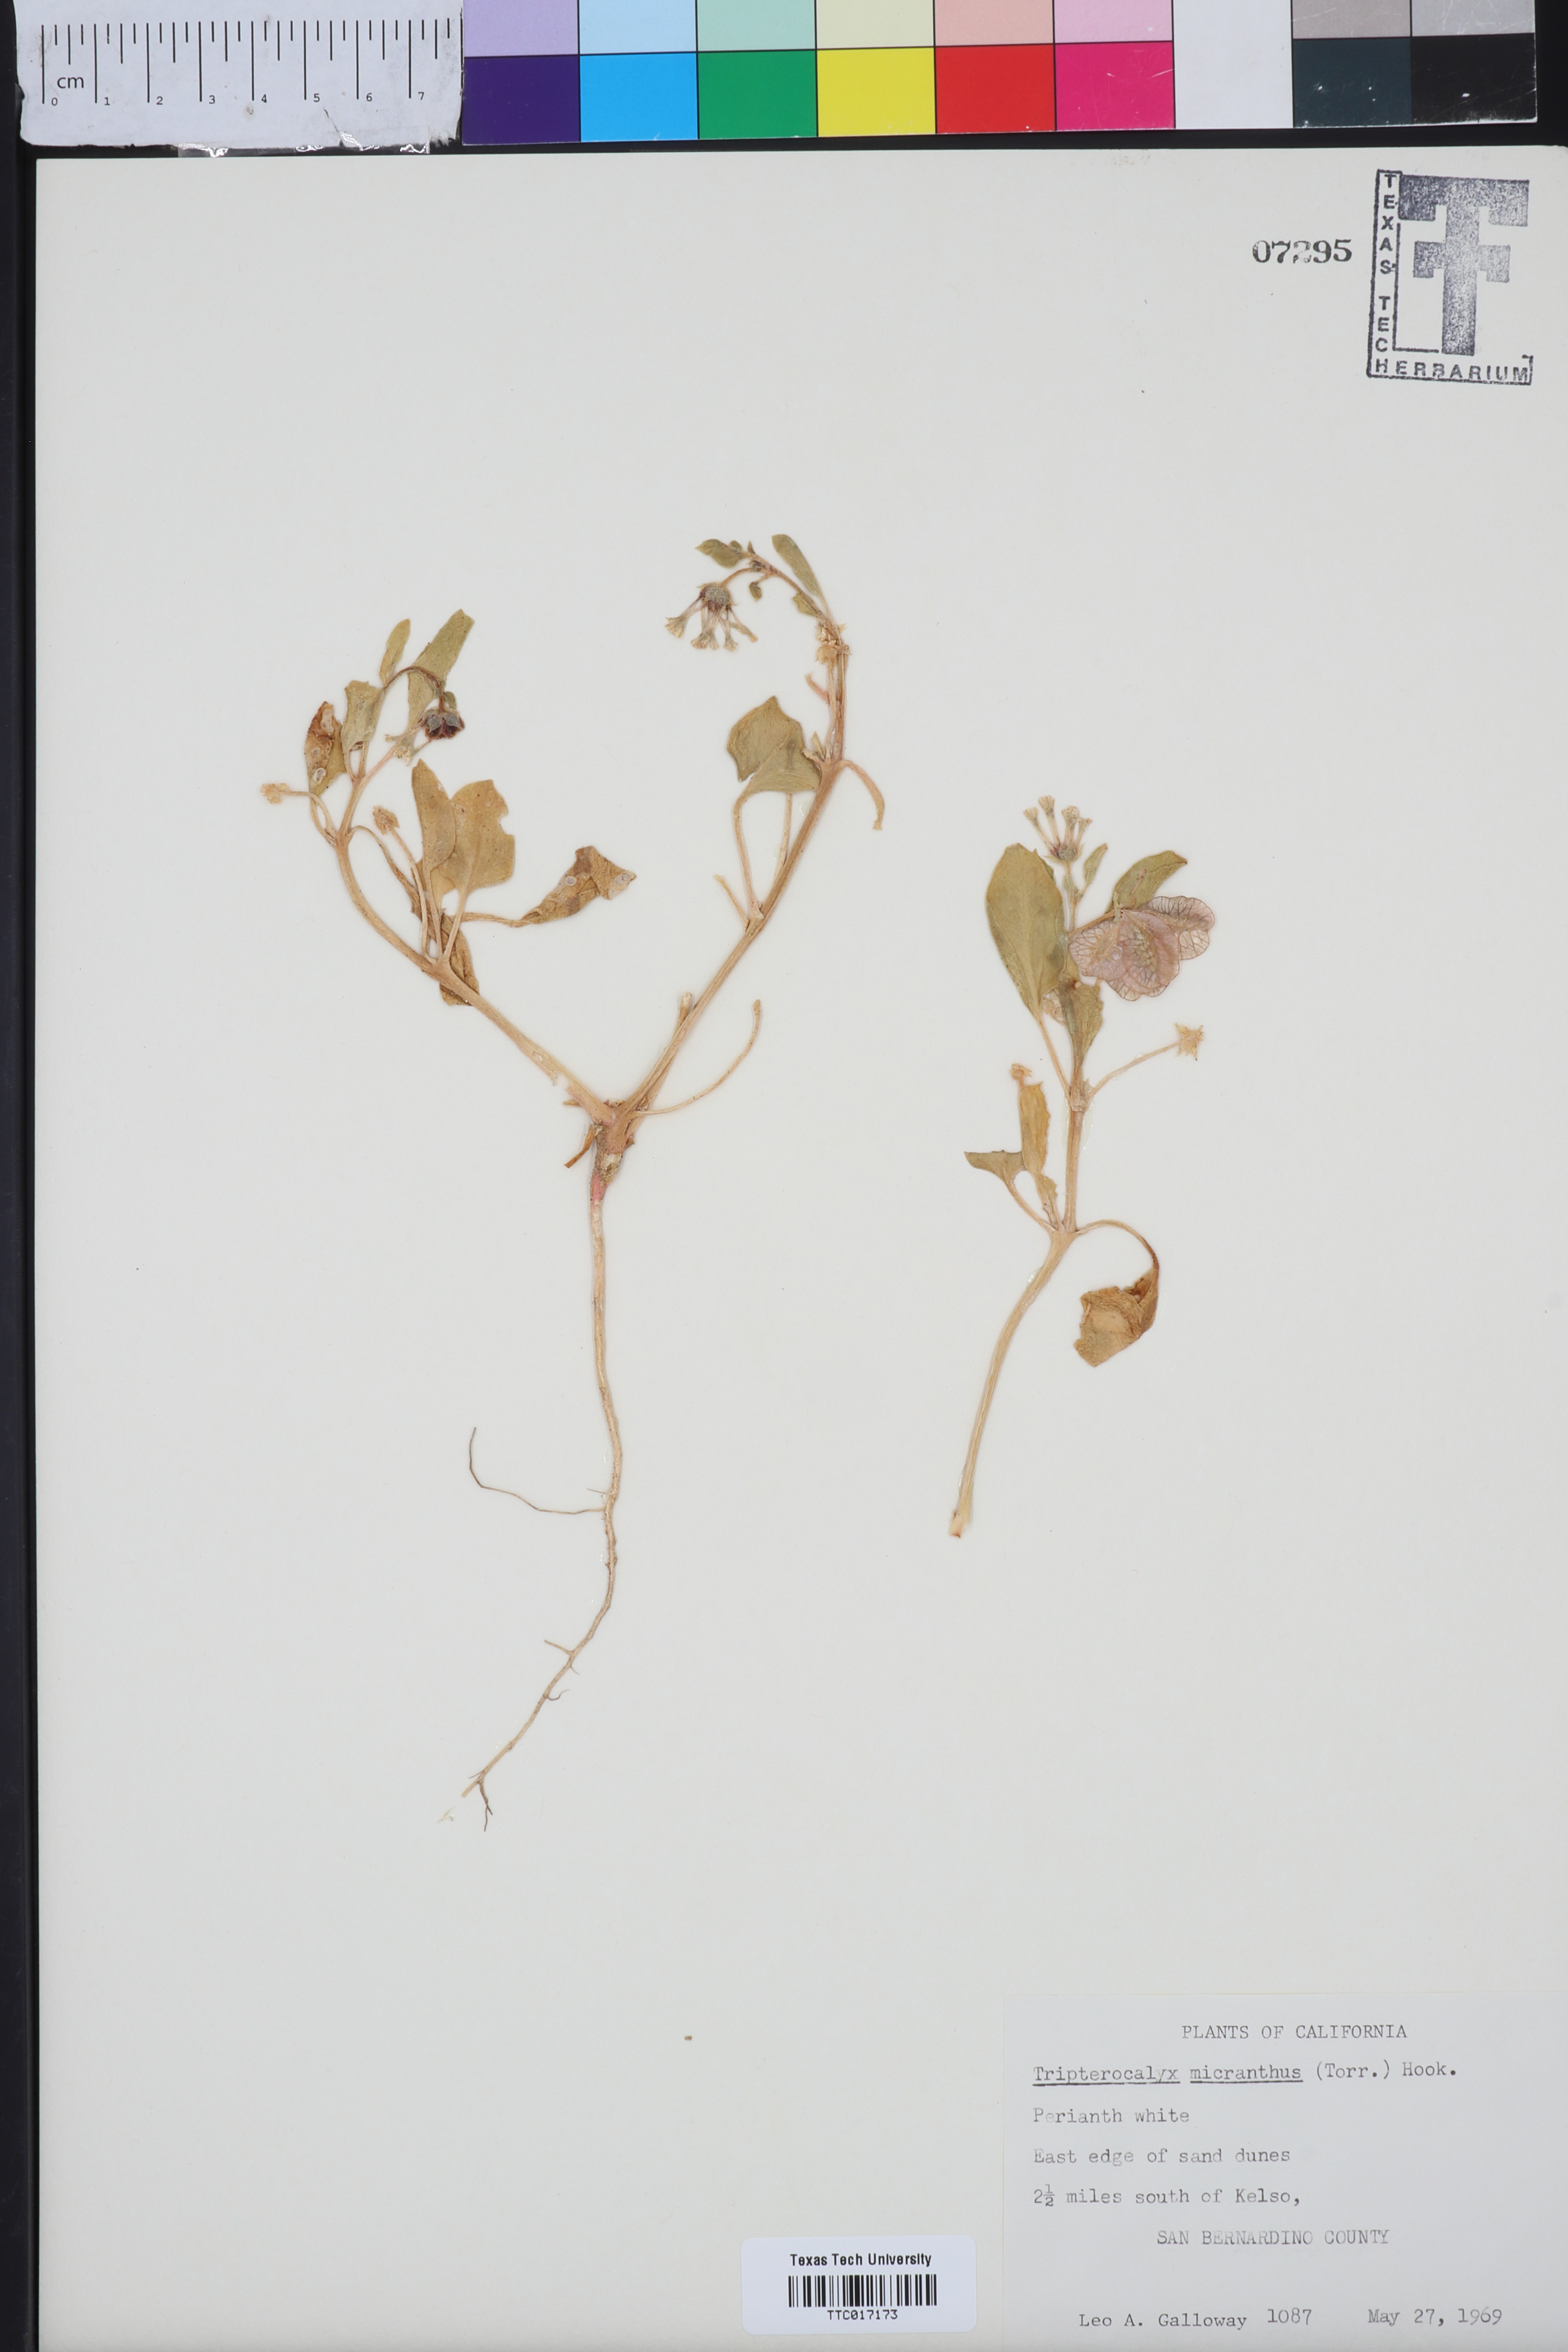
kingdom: Plantae
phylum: Tracheophyta
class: Magnoliopsida
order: Caryophyllales
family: Nyctaginaceae
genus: Tripterocalyx
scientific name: Tripterocalyx micranthus
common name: Small-flowered sand-verbena
